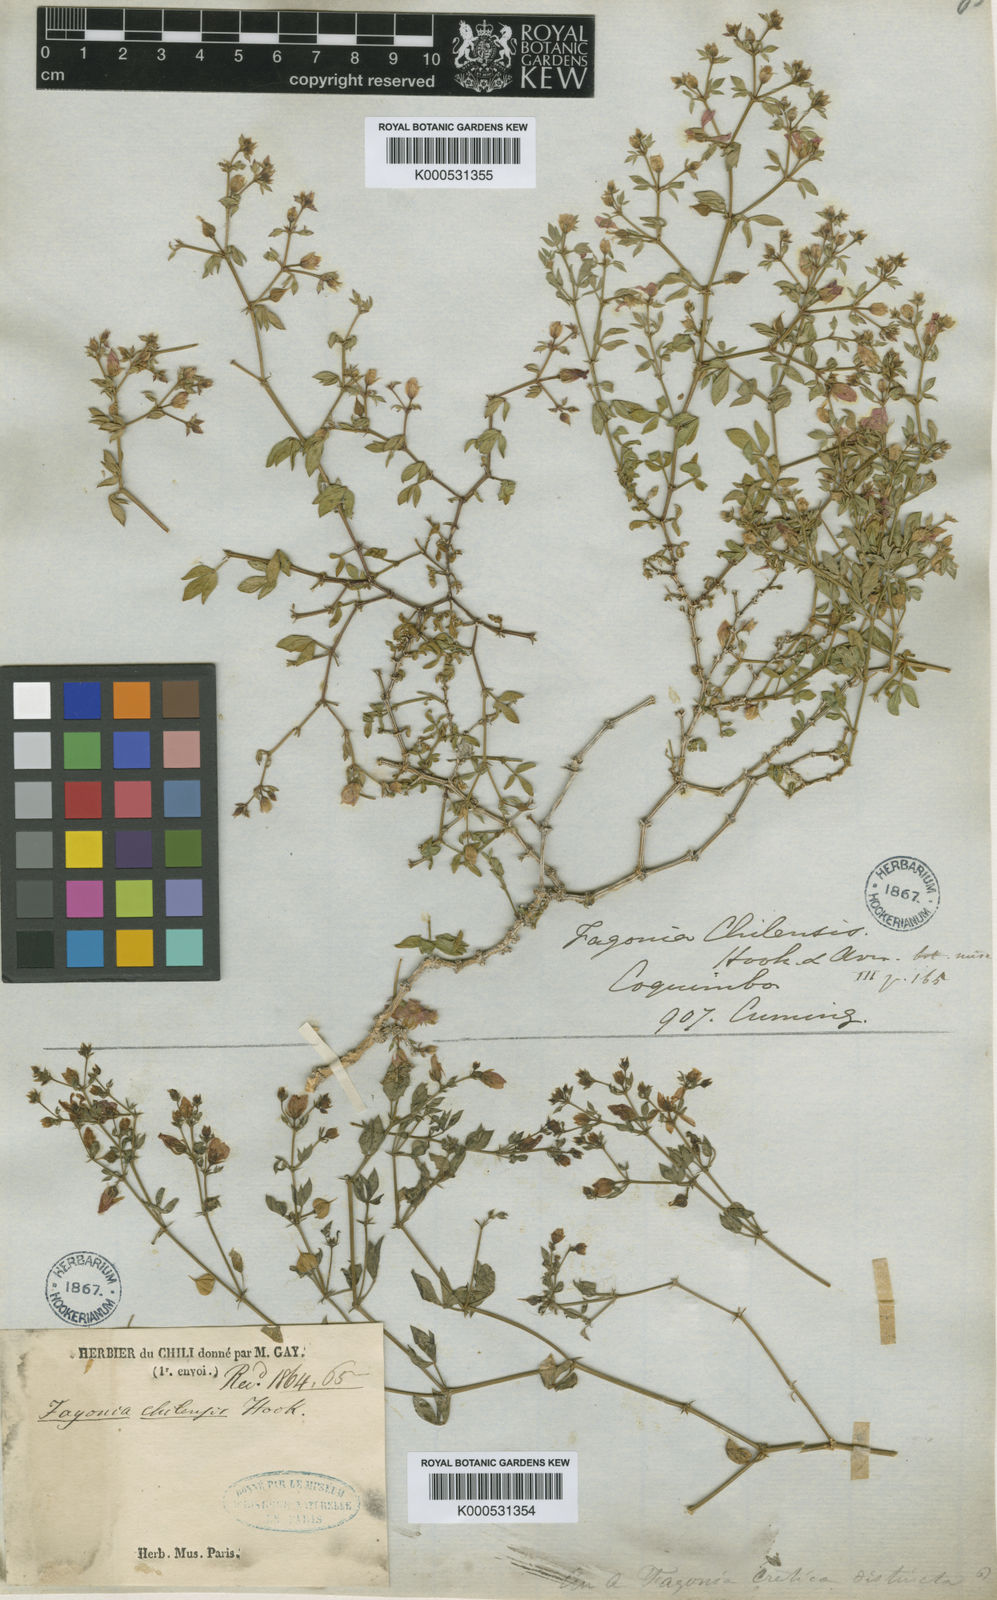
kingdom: Plantae
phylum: Tracheophyta
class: Magnoliopsida
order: Zygophyllales
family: Zygophyllaceae
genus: Fagonia
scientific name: Fagonia chilensis
